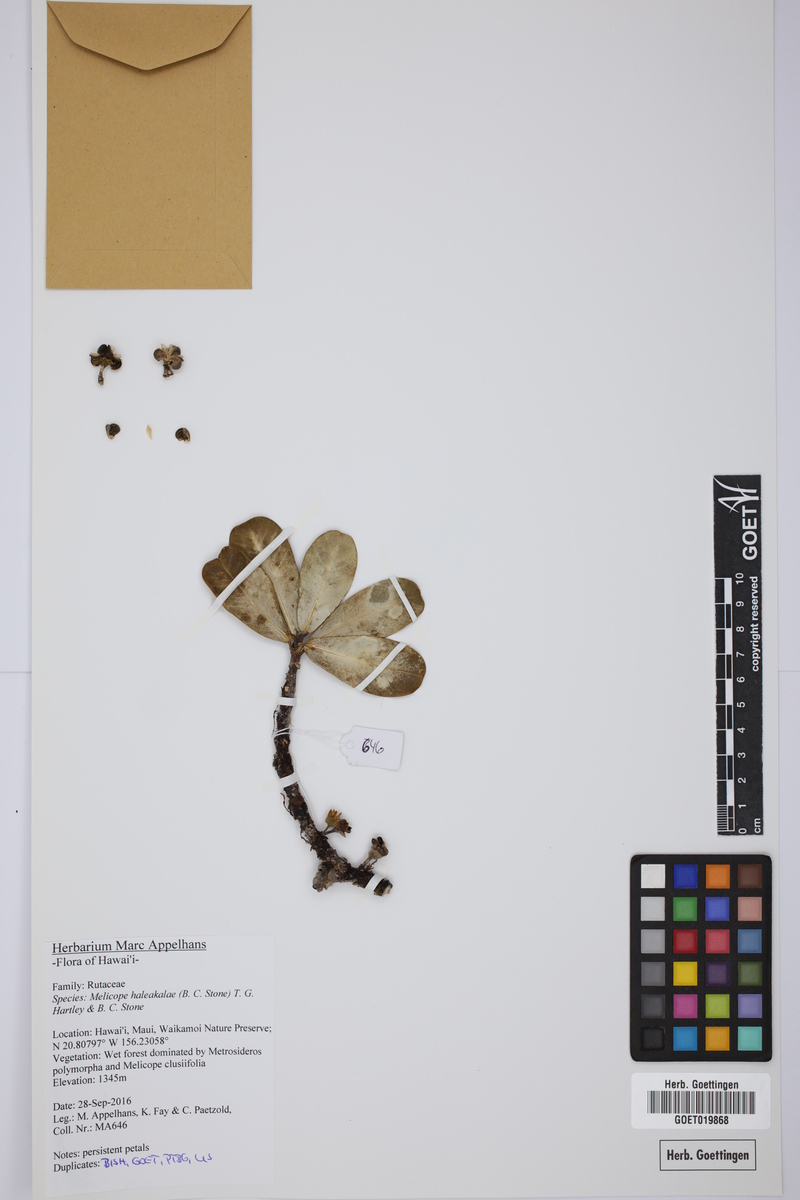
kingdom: Plantae
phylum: Tracheophyta
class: Magnoliopsida
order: Sapindales
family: Rutaceae
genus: Melicope
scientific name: Melicope haleakalae
